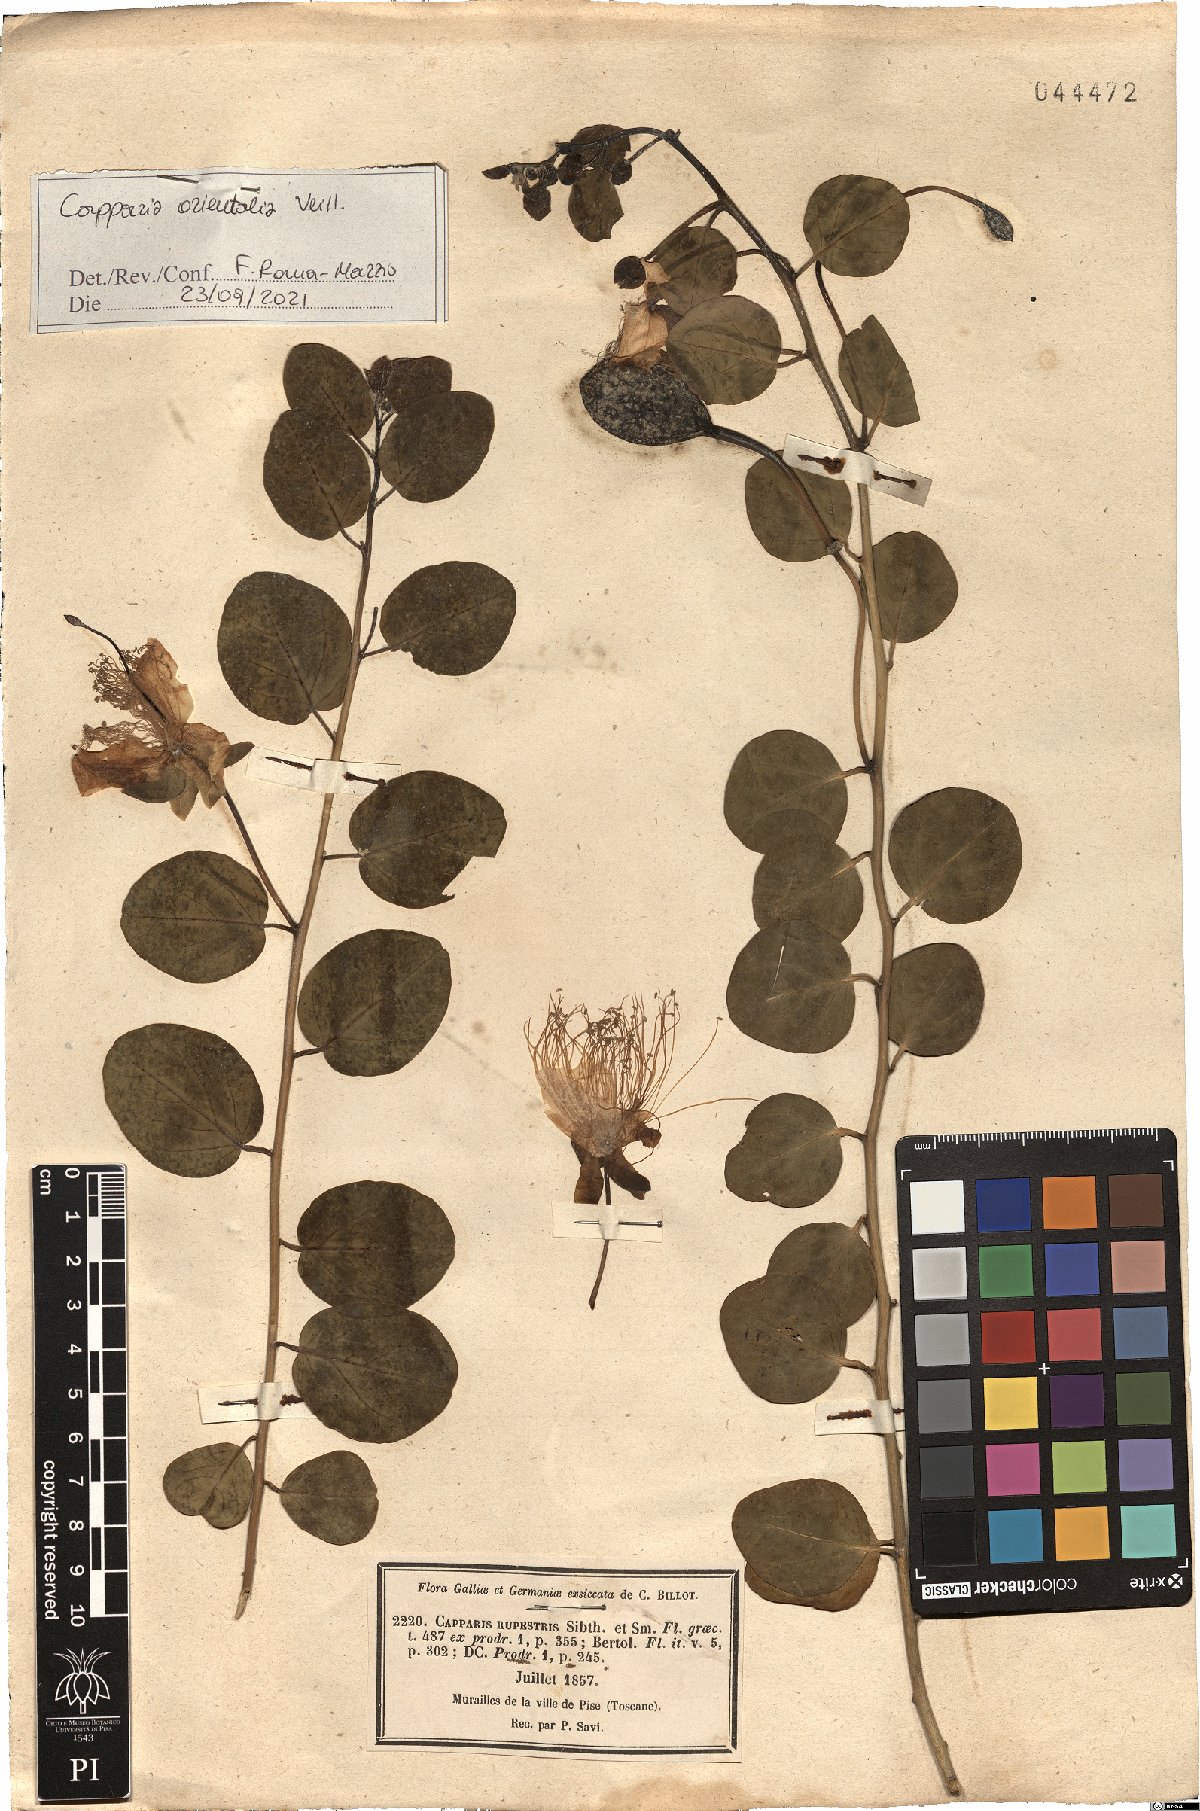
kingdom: Plantae
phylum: Tracheophyta
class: Magnoliopsida
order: Brassicales
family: Capparaceae
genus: Capparis
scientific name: Capparis spinosa
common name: Caper
